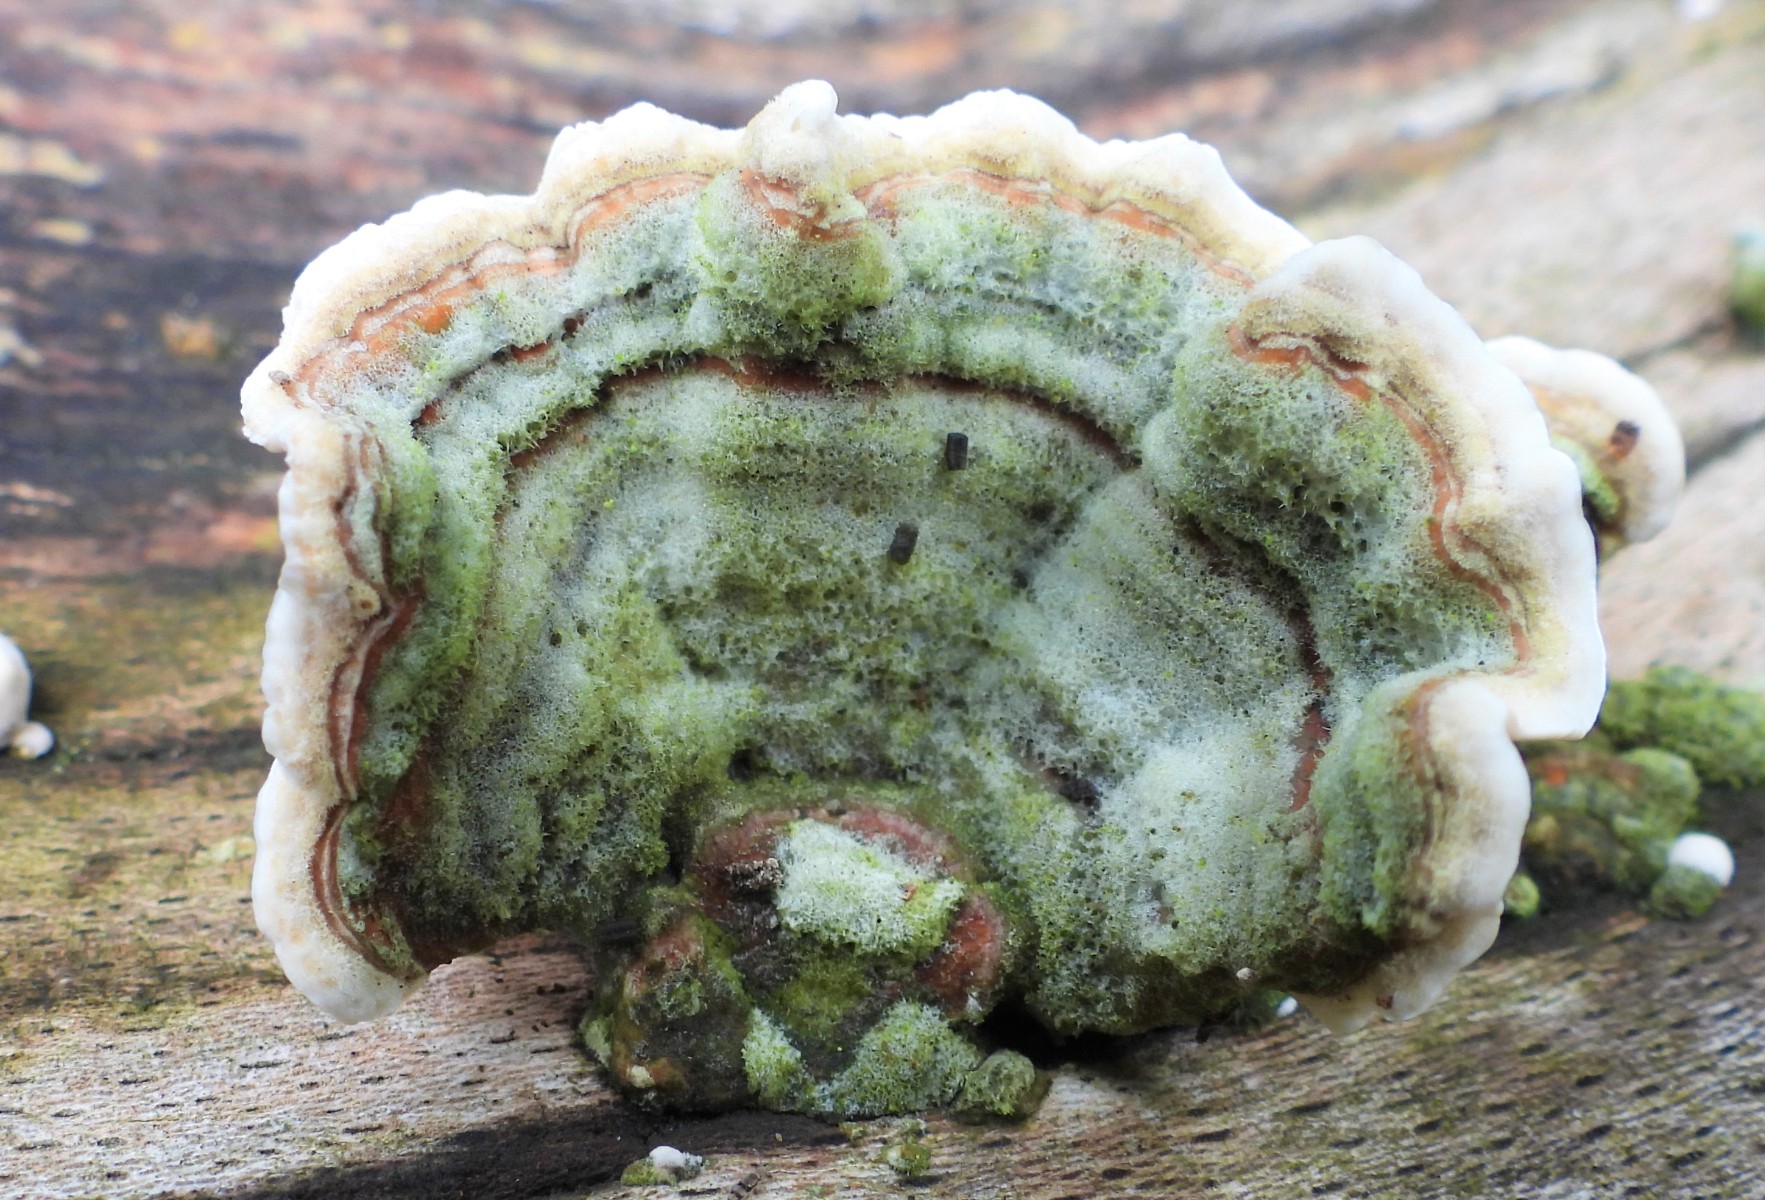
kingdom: Fungi
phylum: Basidiomycota
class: Agaricomycetes
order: Russulales
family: Stereaceae
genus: Stereum
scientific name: Stereum subtomentosum
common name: smuk lædersvamp
